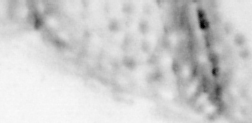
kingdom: Animalia
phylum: Chordata
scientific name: Chordata
